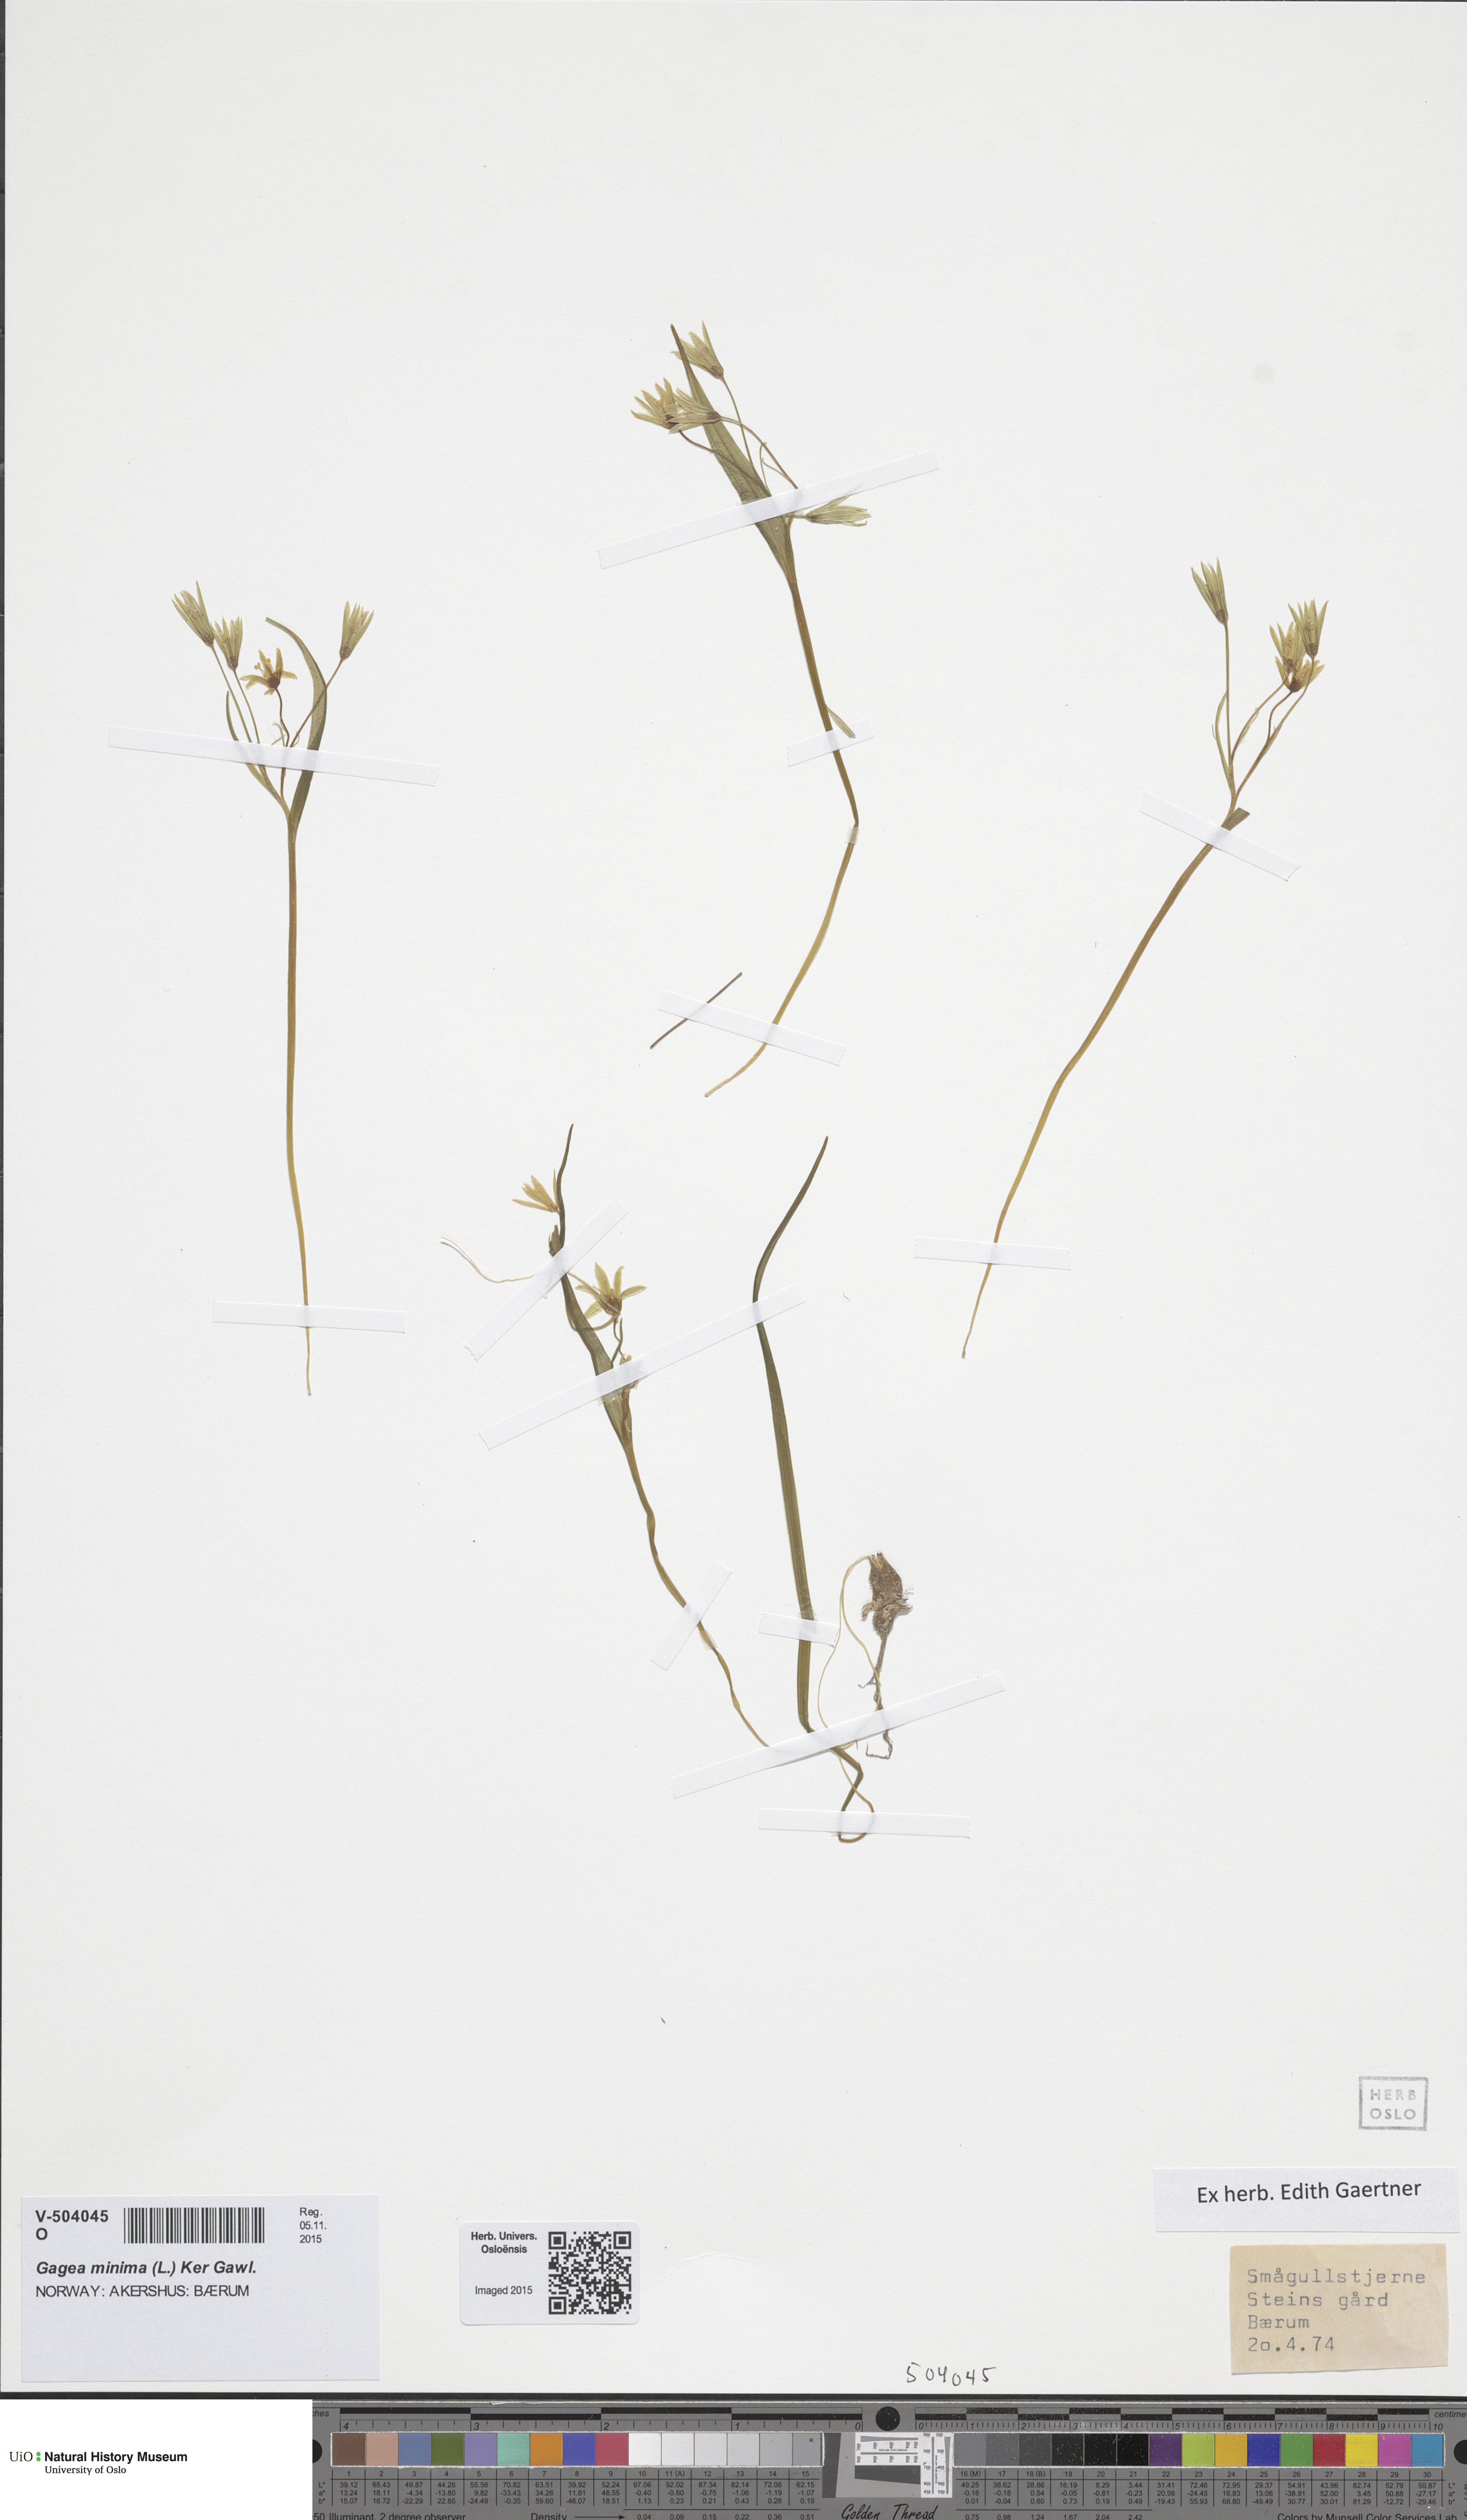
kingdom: Plantae
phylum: Tracheophyta
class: Liliopsida
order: Liliales
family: Liliaceae
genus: Gagea
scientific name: Gagea minima
